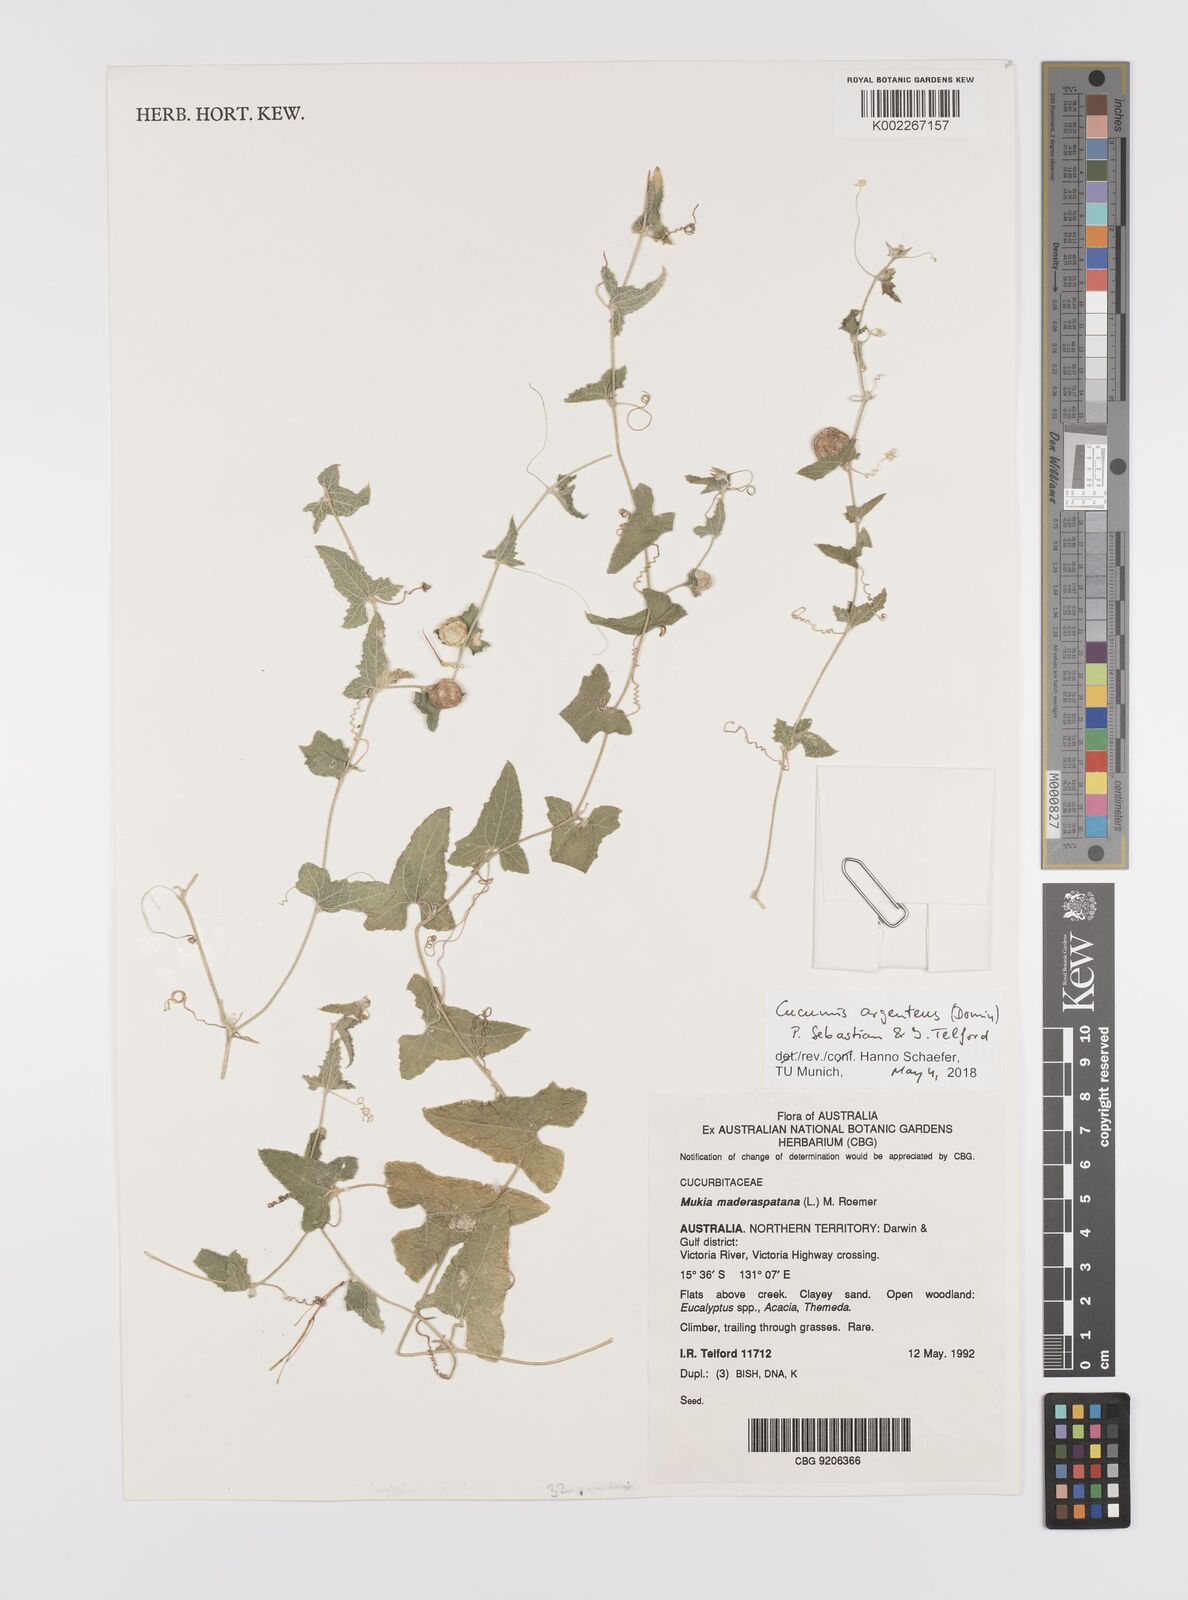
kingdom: Plantae
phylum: Tracheophyta
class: Magnoliopsida
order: Cucurbitales
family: Cucurbitaceae
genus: Cucumis
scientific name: Cucumis argenteus
